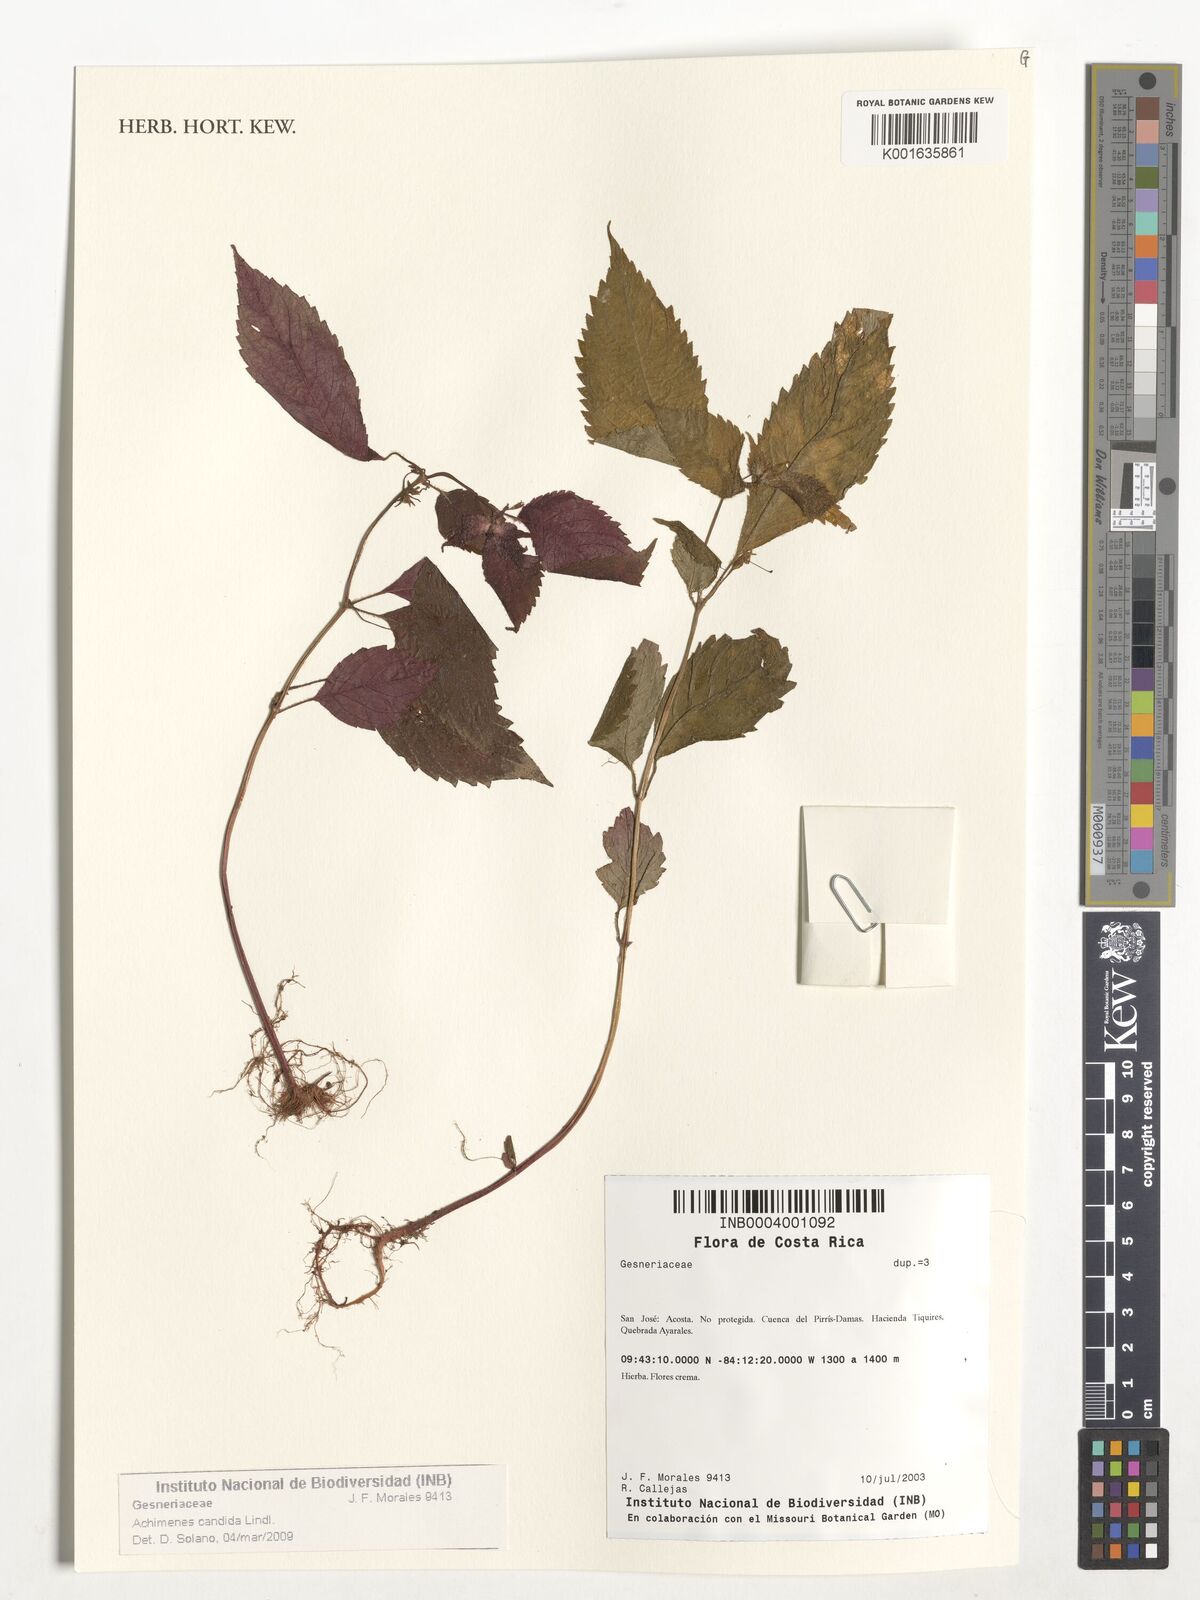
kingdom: Plantae
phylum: Tracheophyta
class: Magnoliopsida
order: Lamiales
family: Gesneriaceae
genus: Achimenes
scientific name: Achimenes candida
